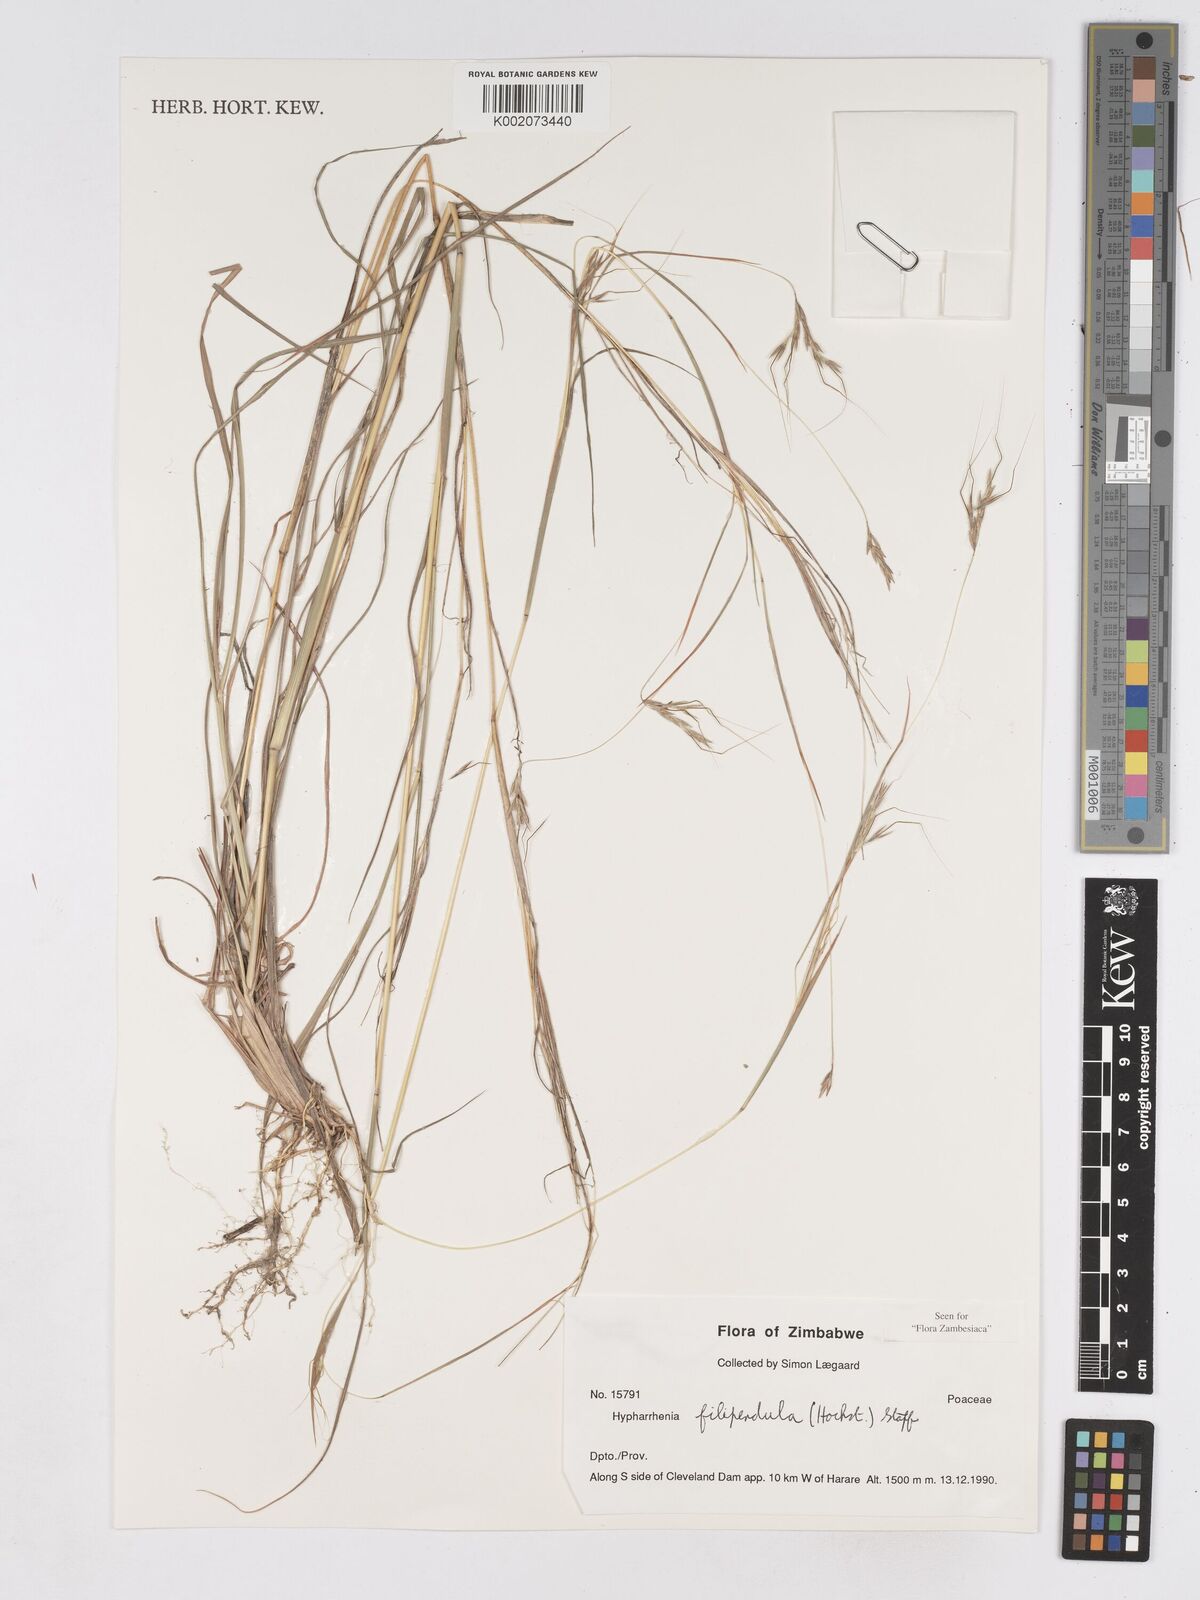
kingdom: Plantae
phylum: Tracheophyta
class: Liliopsida
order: Poales
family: Poaceae
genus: Hyparrhenia
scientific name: Hyparrhenia filipendula
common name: Tambookie grass
